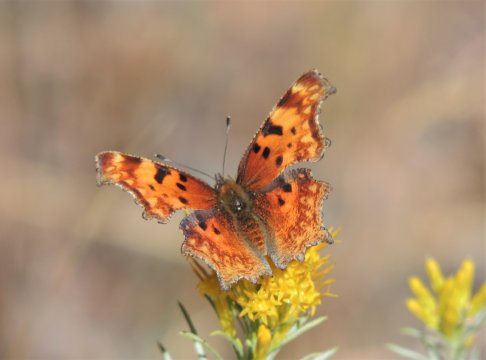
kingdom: Animalia
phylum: Arthropoda
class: Insecta
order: Lepidoptera
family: Nymphalidae
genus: Polygonia
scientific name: Polygonia gracilis
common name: Hoary Comma
